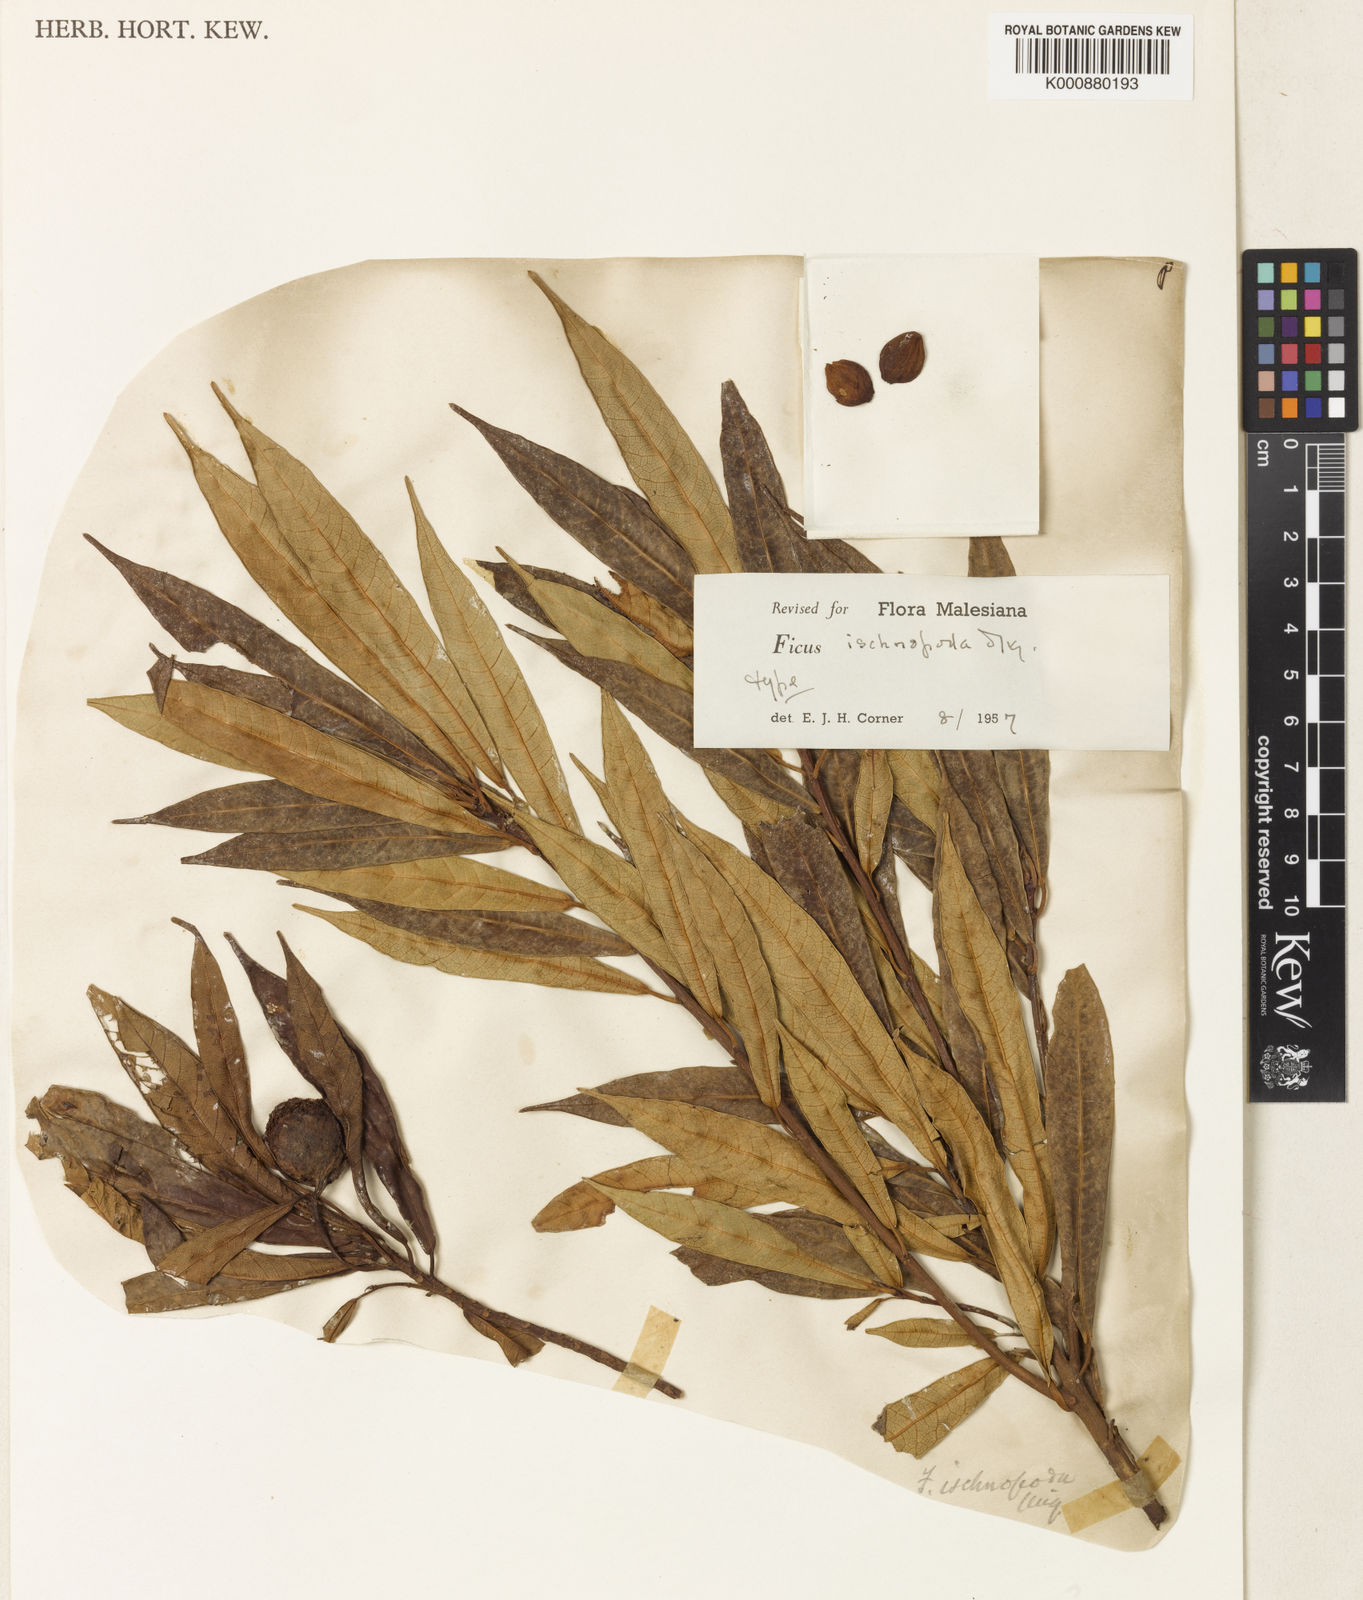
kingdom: Plantae
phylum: Tracheophyta
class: Magnoliopsida
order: Rosales
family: Moraceae
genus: Ficus
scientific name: Ficus ischnopoda
